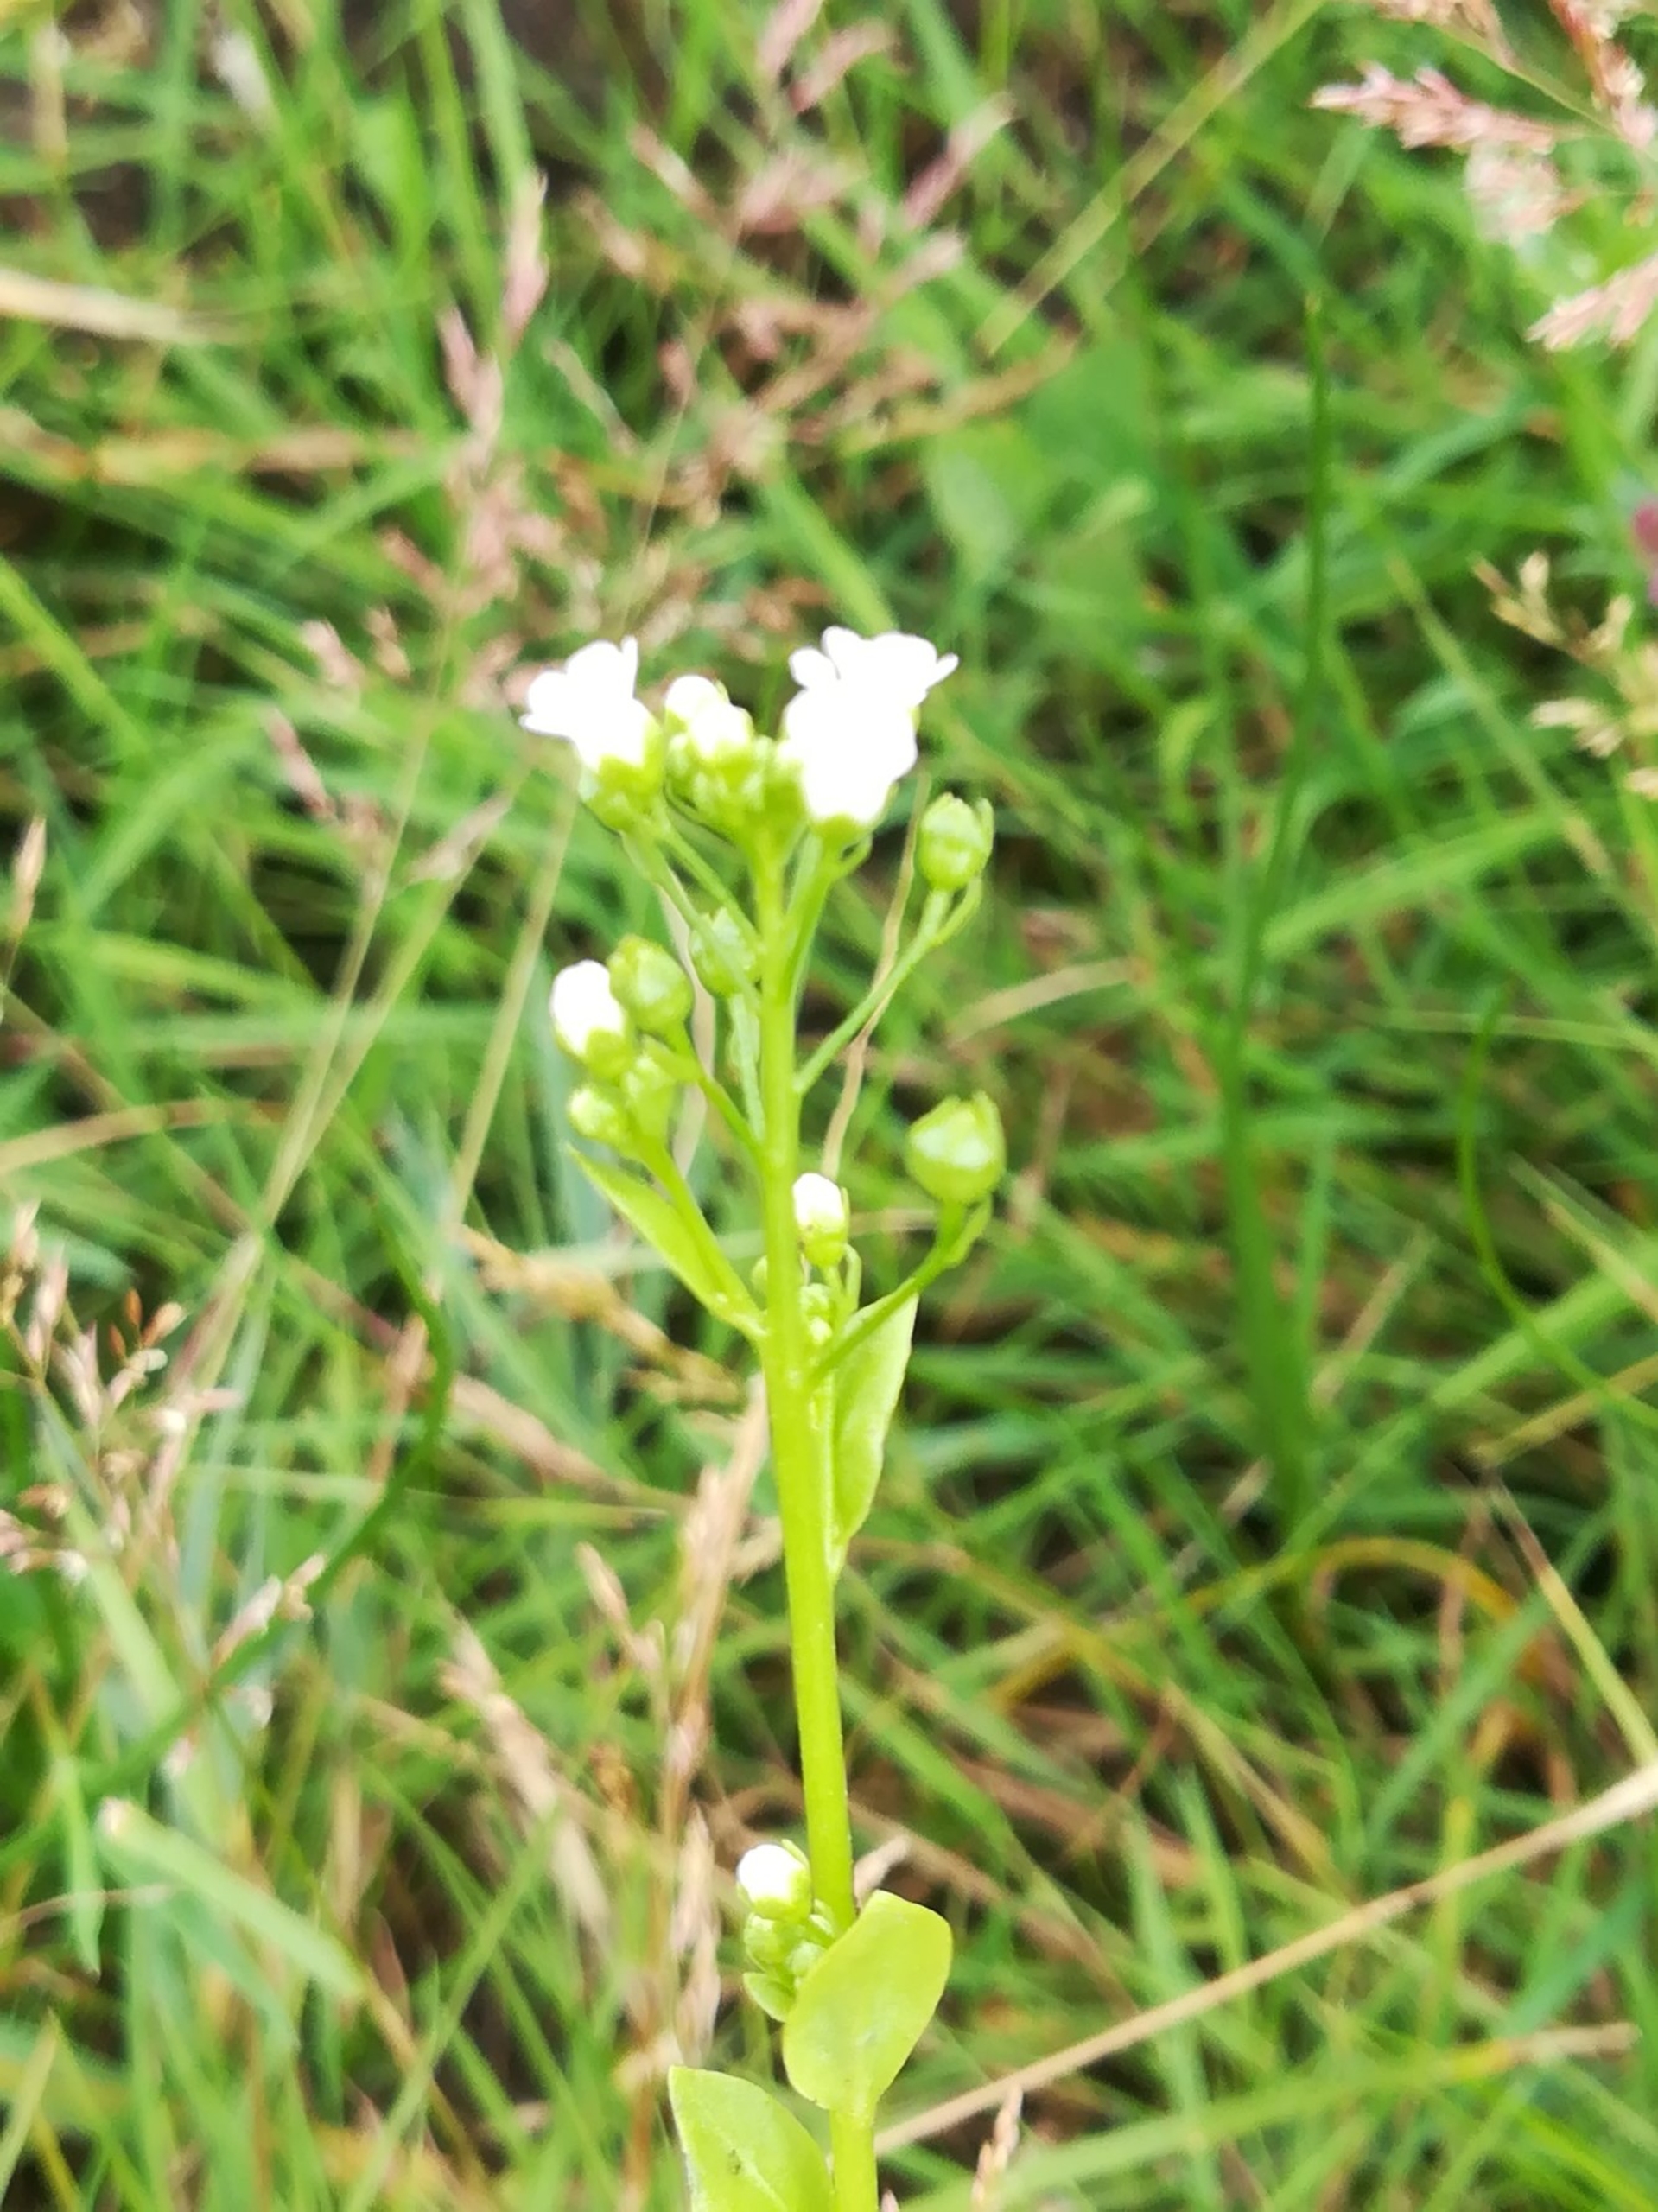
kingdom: Plantae
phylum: Tracheophyta
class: Magnoliopsida
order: Ericales
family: Primulaceae
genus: Samolus
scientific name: Samolus valerandi
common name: Samel
